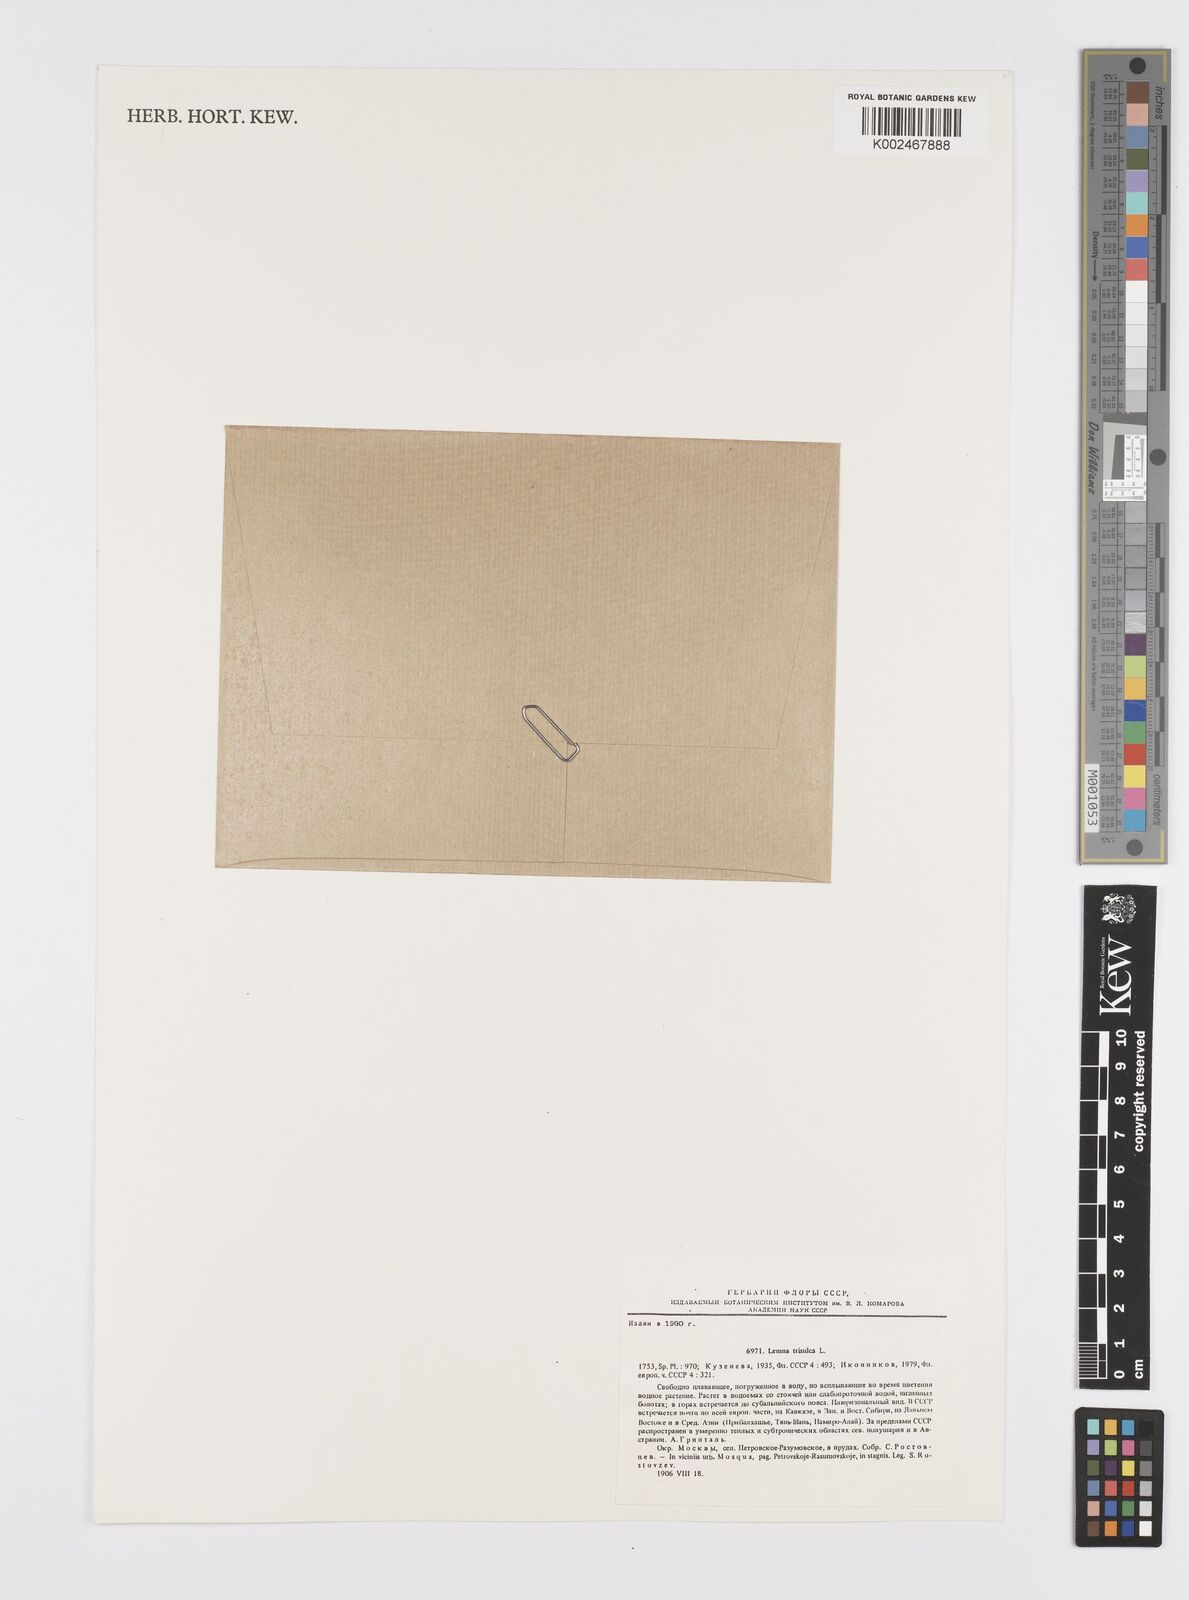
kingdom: Plantae
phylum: Tracheophyta
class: Liliopsida
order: Alismatales
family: Araceae
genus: Lemna
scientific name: Lemna trisulca
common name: Ivy-leaved duckweed
